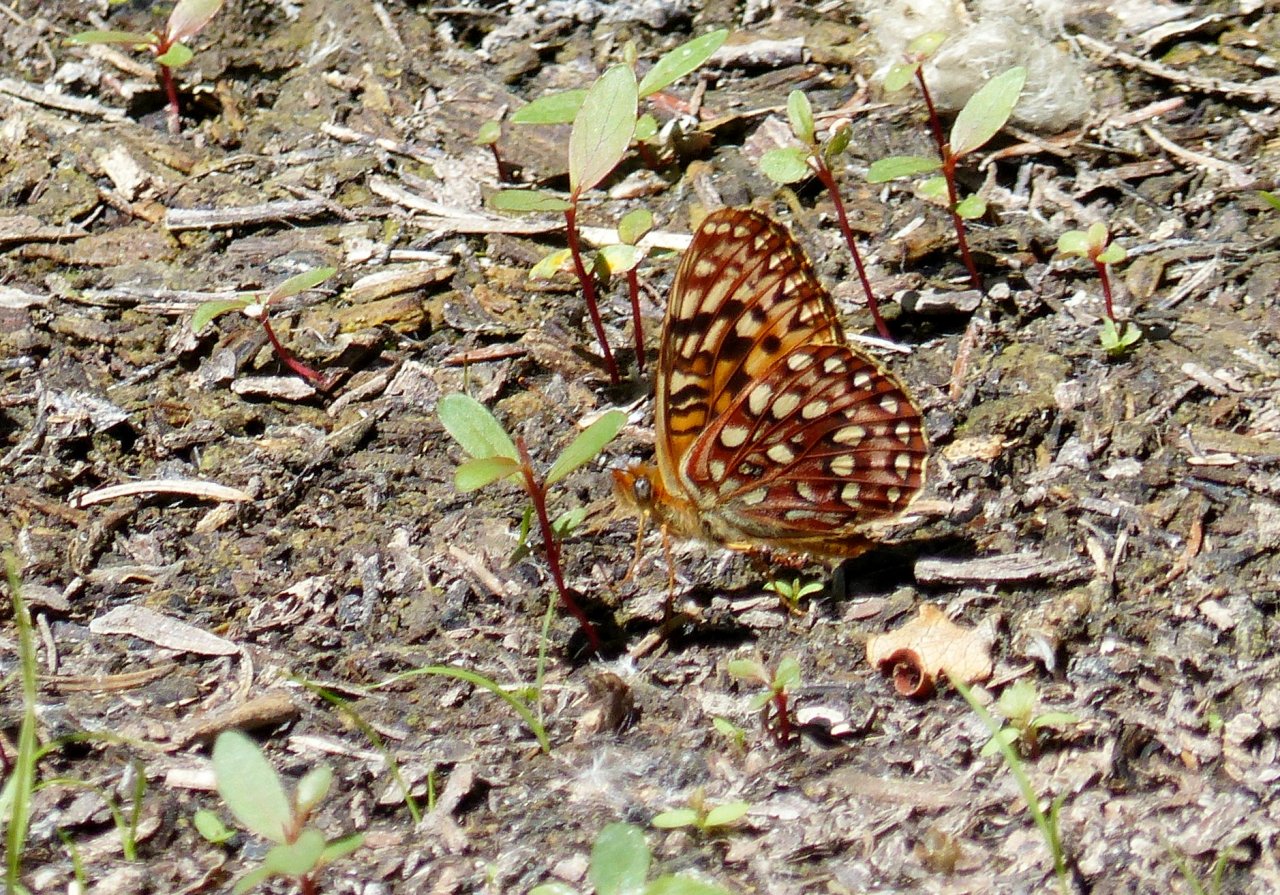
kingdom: Animalia
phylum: Arthropoda
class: Insecta
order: Lepidoptera
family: Nymphalidae
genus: Speyeria
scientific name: Speyeria hydaspe
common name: Hydaspe Fritillary
